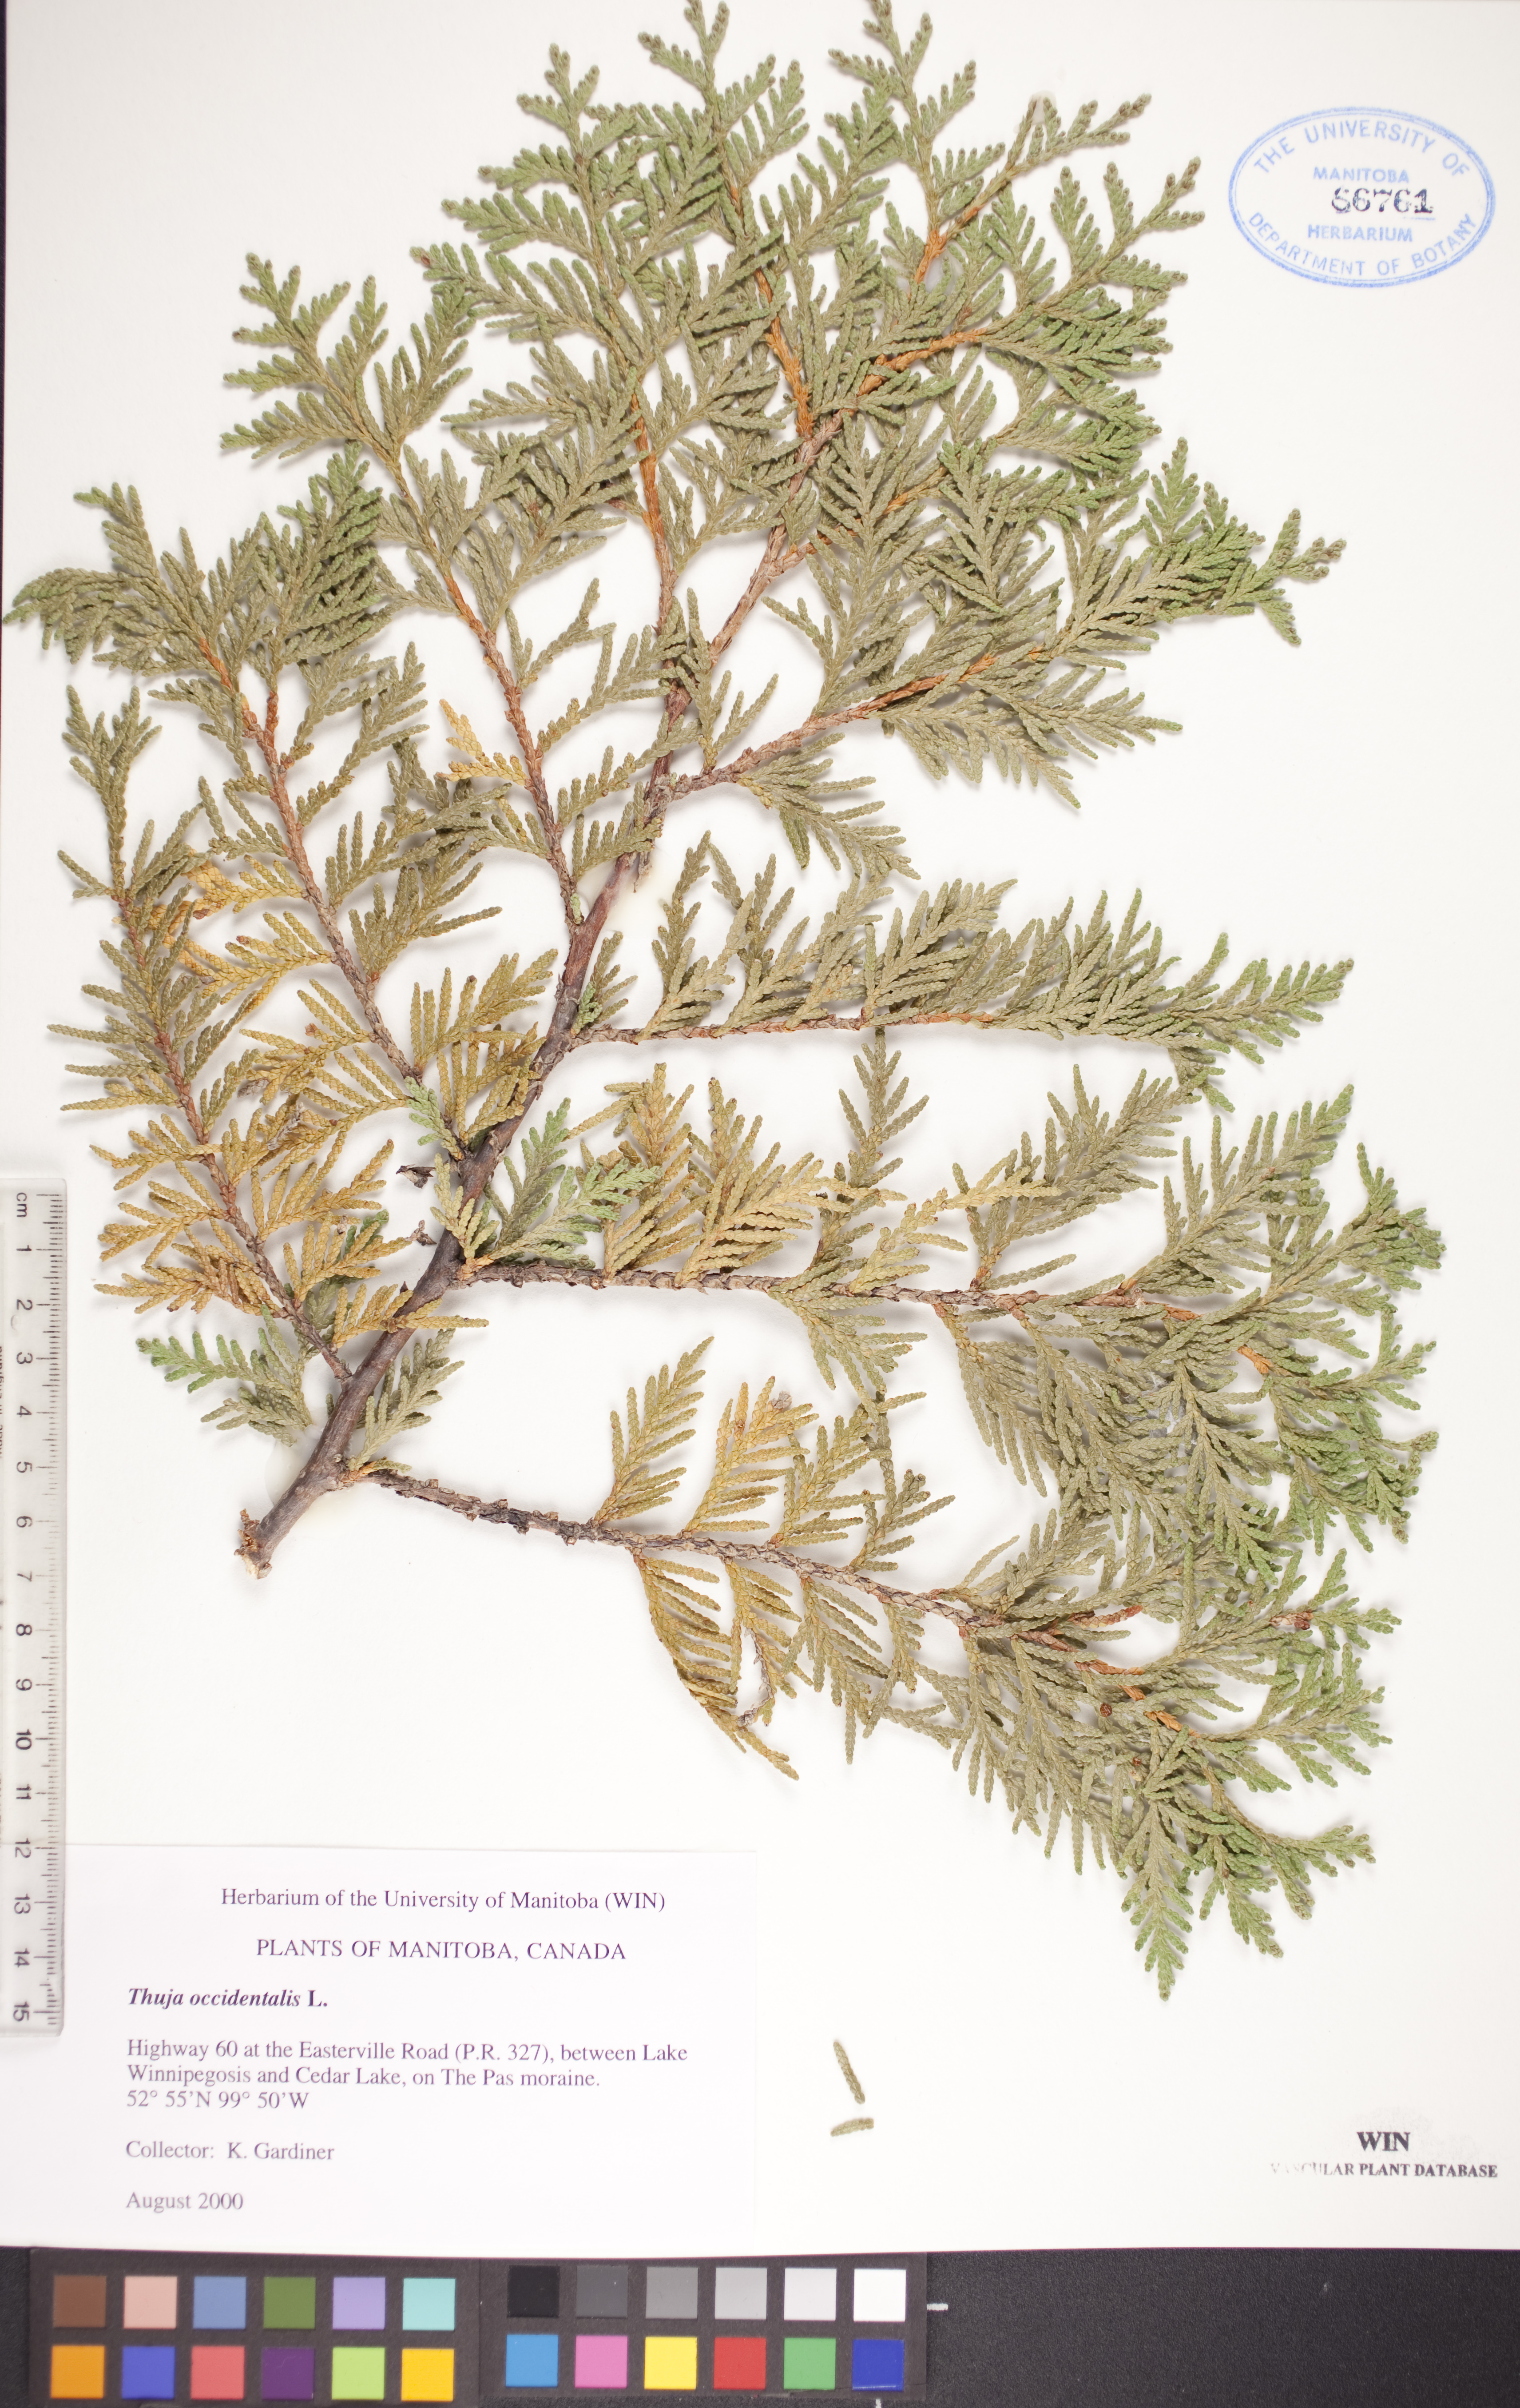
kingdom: Plantae
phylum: Tracheophyta
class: Pinopsida
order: Pinales
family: Cupressaceae
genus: Thuja
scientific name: Thuja occidentalis
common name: Northern white-cedar
